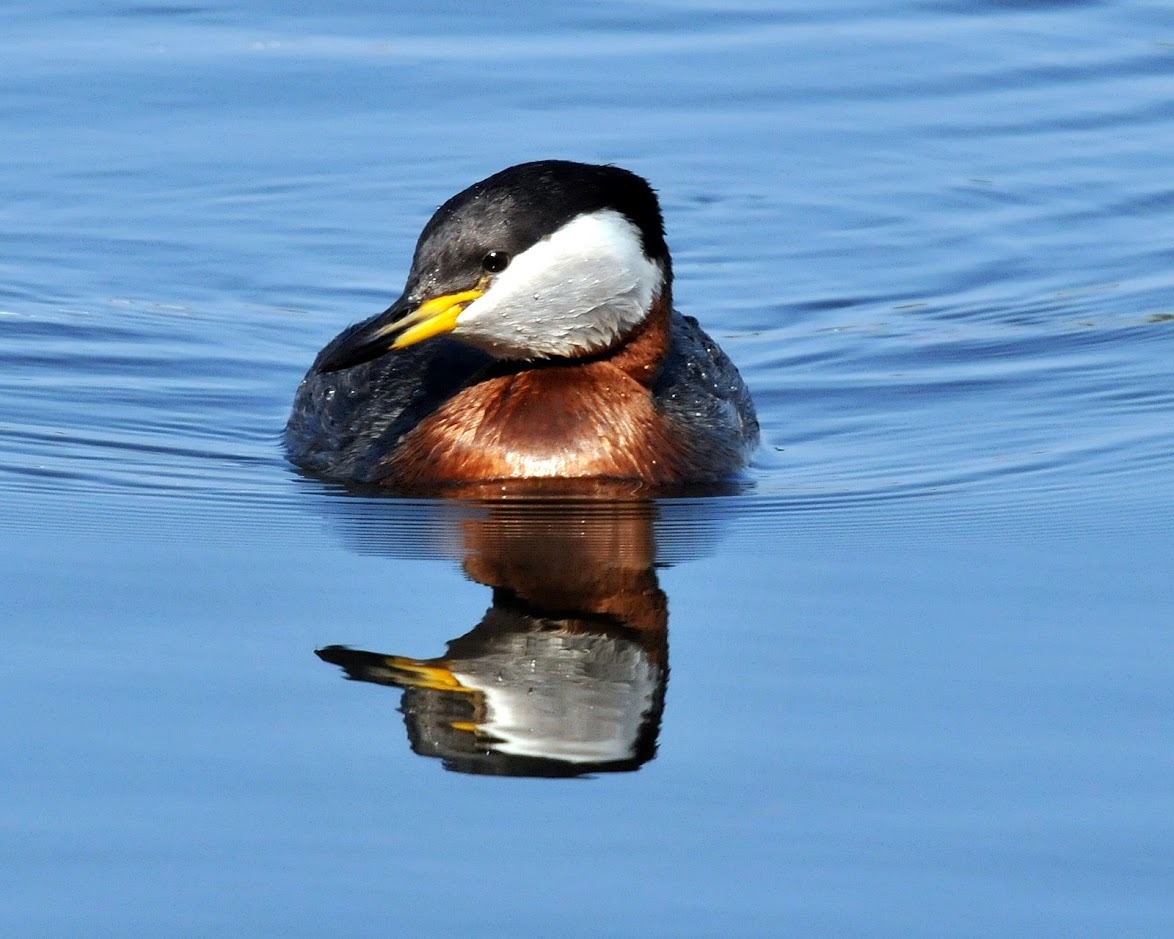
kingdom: Animalia
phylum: Chordata
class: Aves
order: Podicipediformes
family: Podicipedidae
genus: Podiceps
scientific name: Podiceps grisegena
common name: Gråstrubet lappedykker
